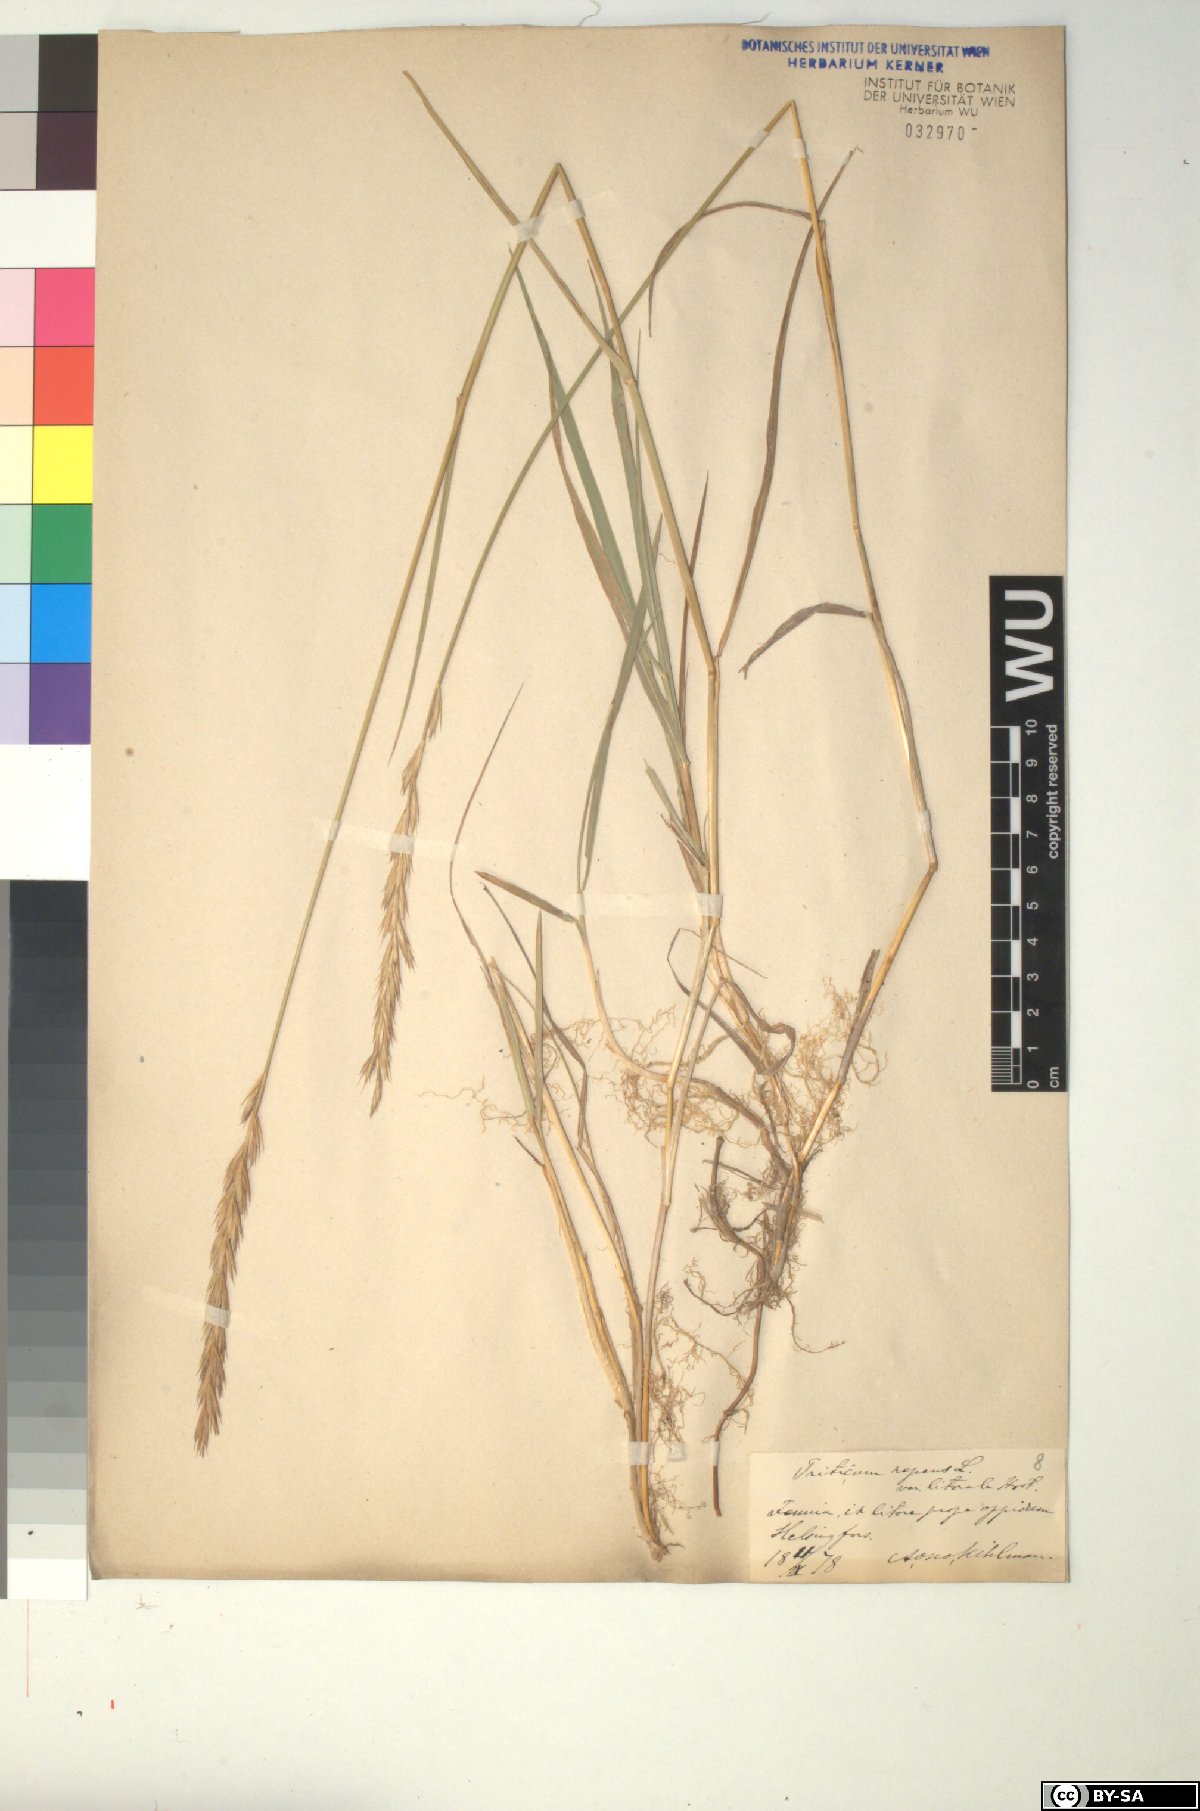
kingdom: Plantae
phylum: Tracheophyta
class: Liliopsida
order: Poales
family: Poaceae
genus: Elymus
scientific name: Elymus repens
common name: Quackgrass
